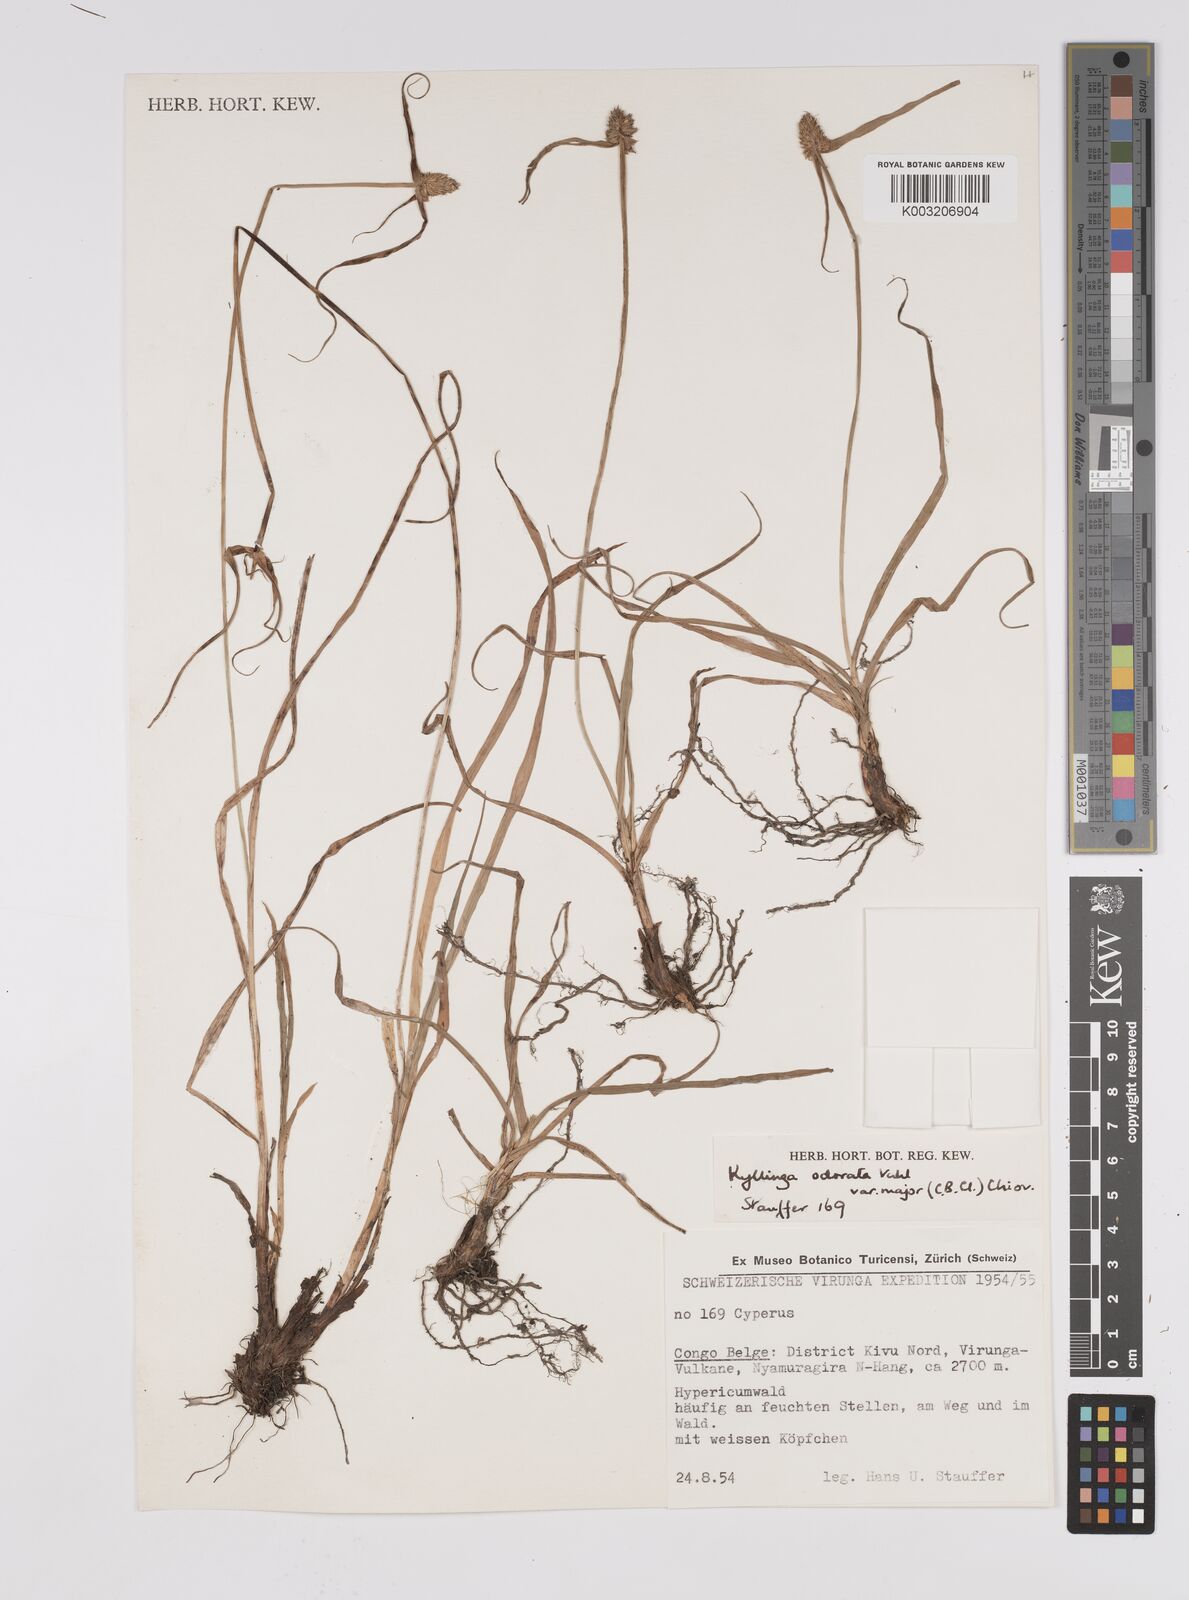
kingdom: Plantae
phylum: Tracheophyta
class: Liliopsida
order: Poales
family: Cyperaceae
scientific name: Cyperaceae
